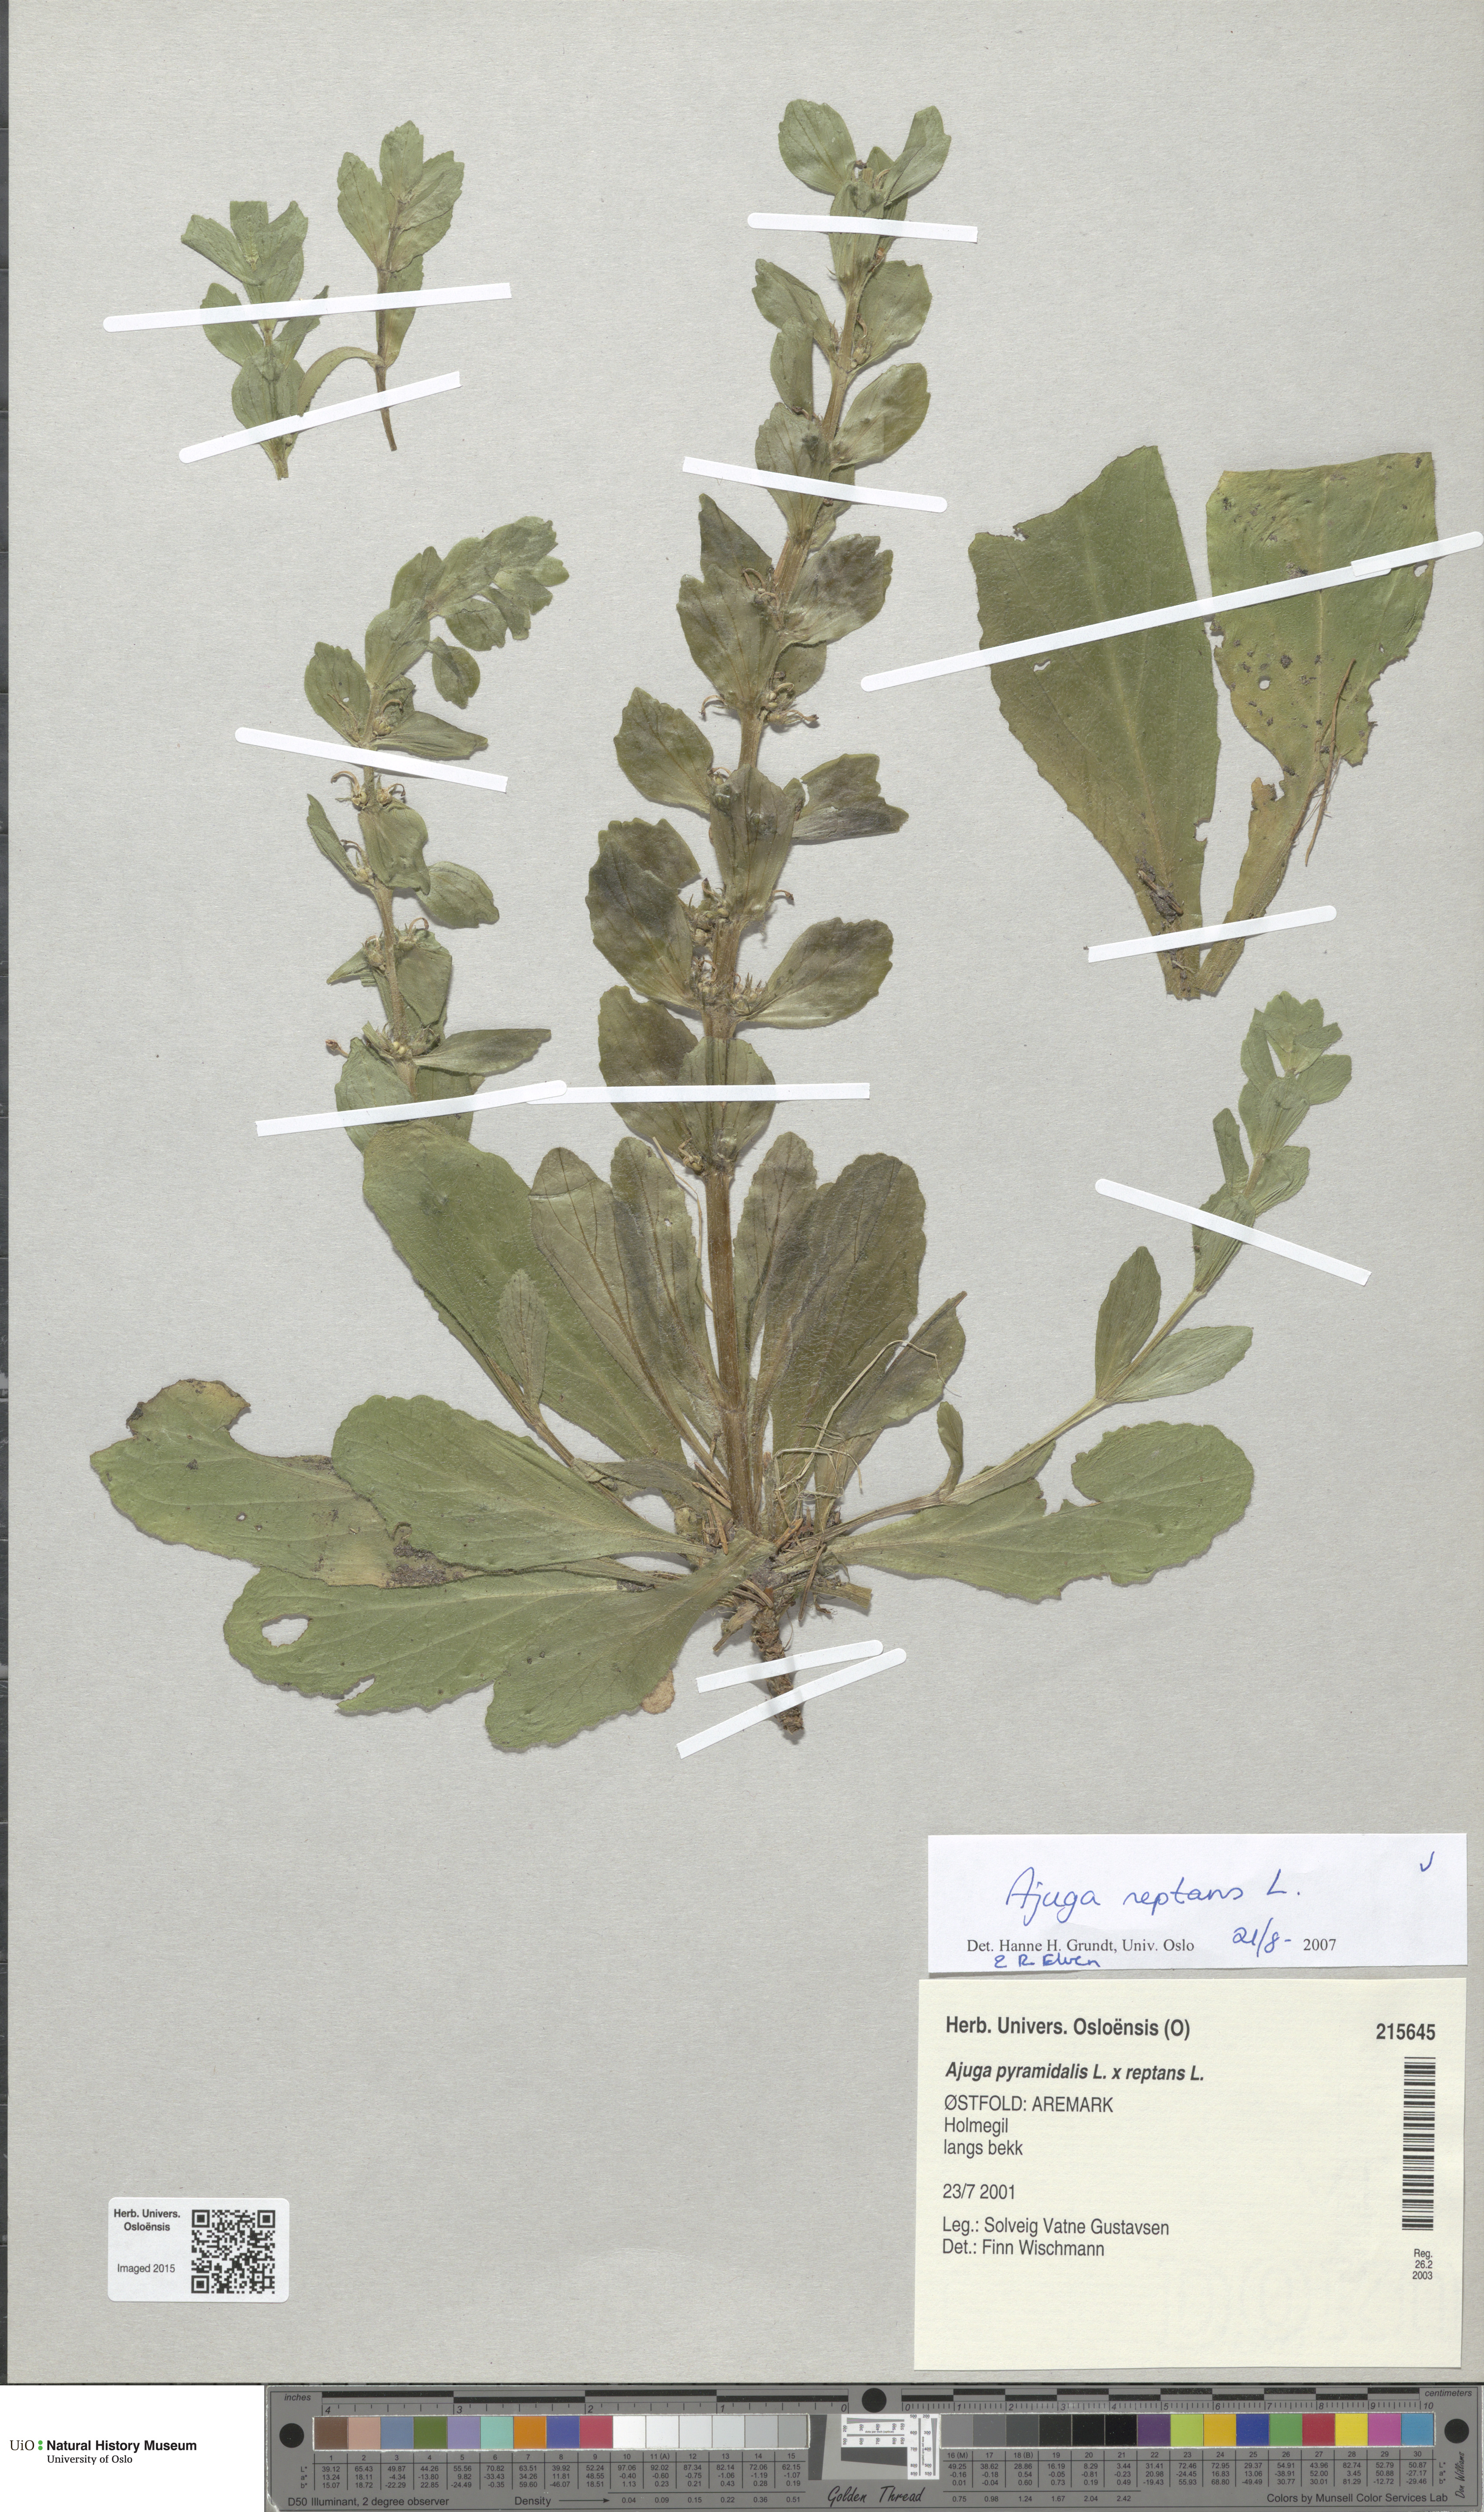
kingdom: Plantae
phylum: Tracheophyta
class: Magnoliopsida
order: Lamiales
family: Lamiaceae
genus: Ajuga
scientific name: Ajuga reptans
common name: Bugle
